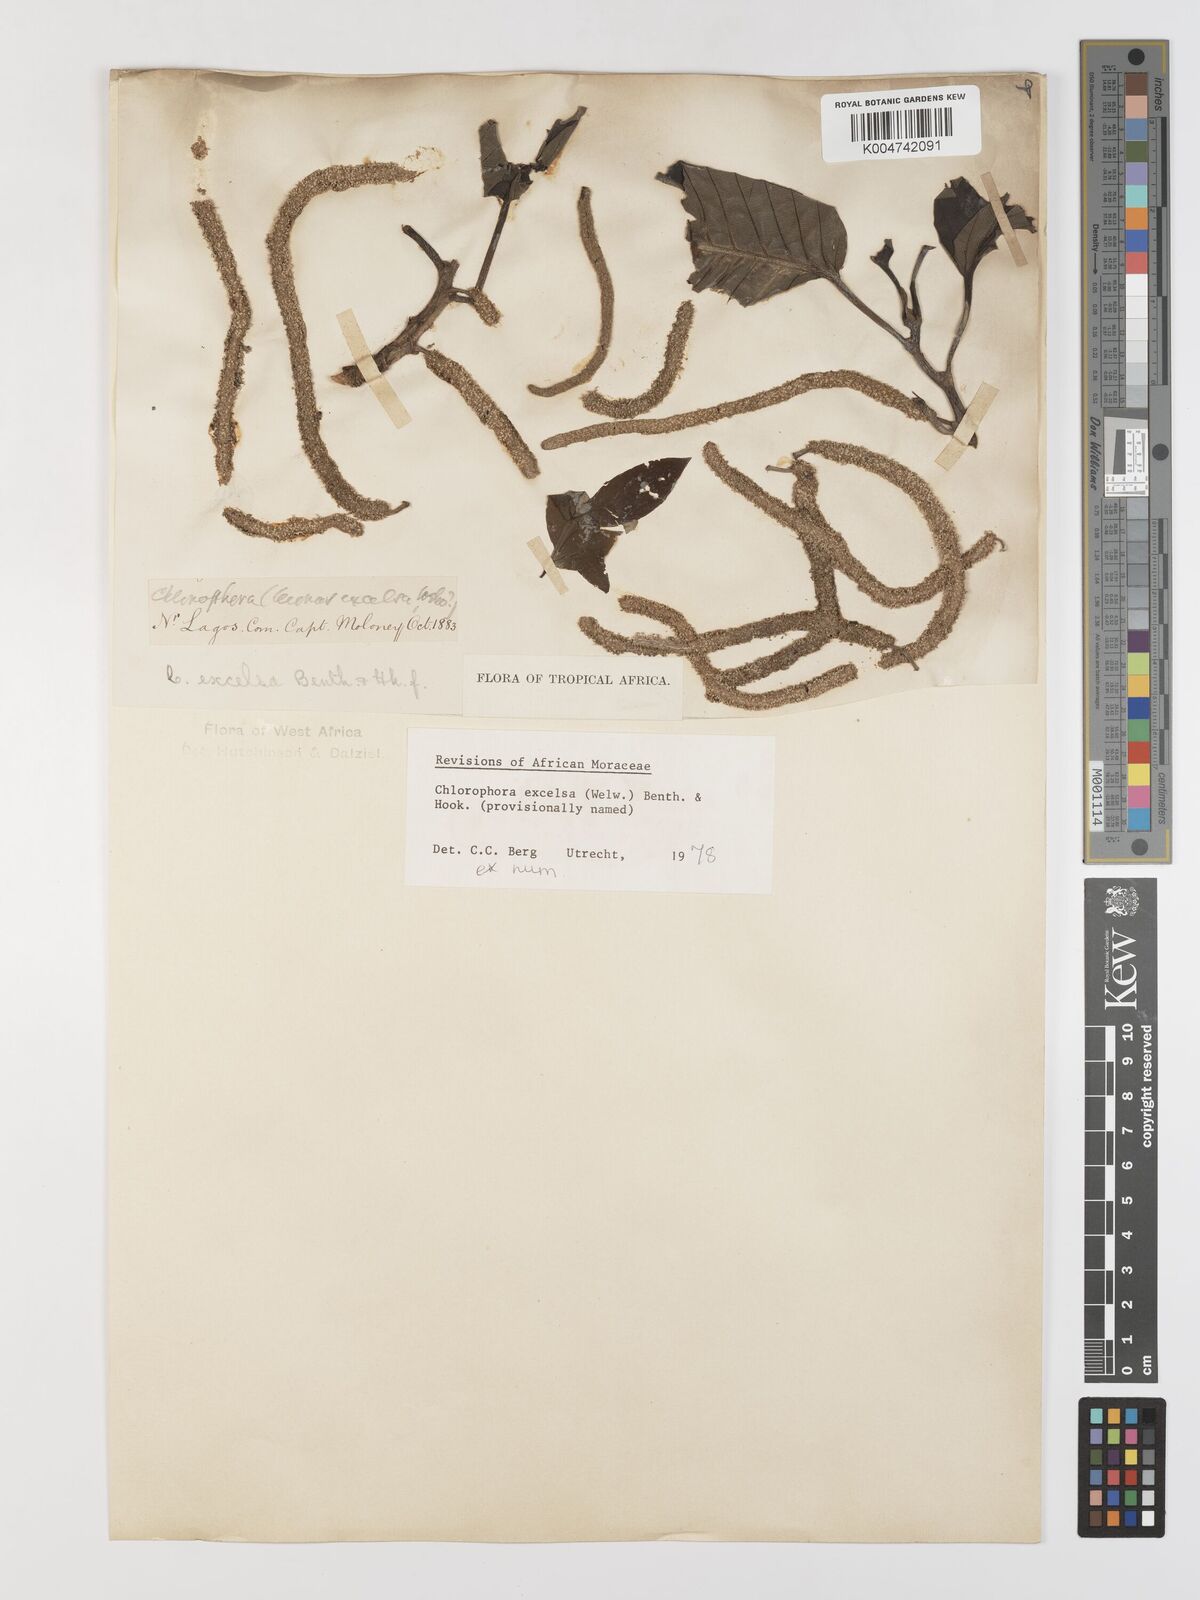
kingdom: Plantae
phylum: Tracheophyta
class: Magnoliopsida
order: Rosales
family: Moraceae
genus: Milicia
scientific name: Milicia excelsa
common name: African teak
